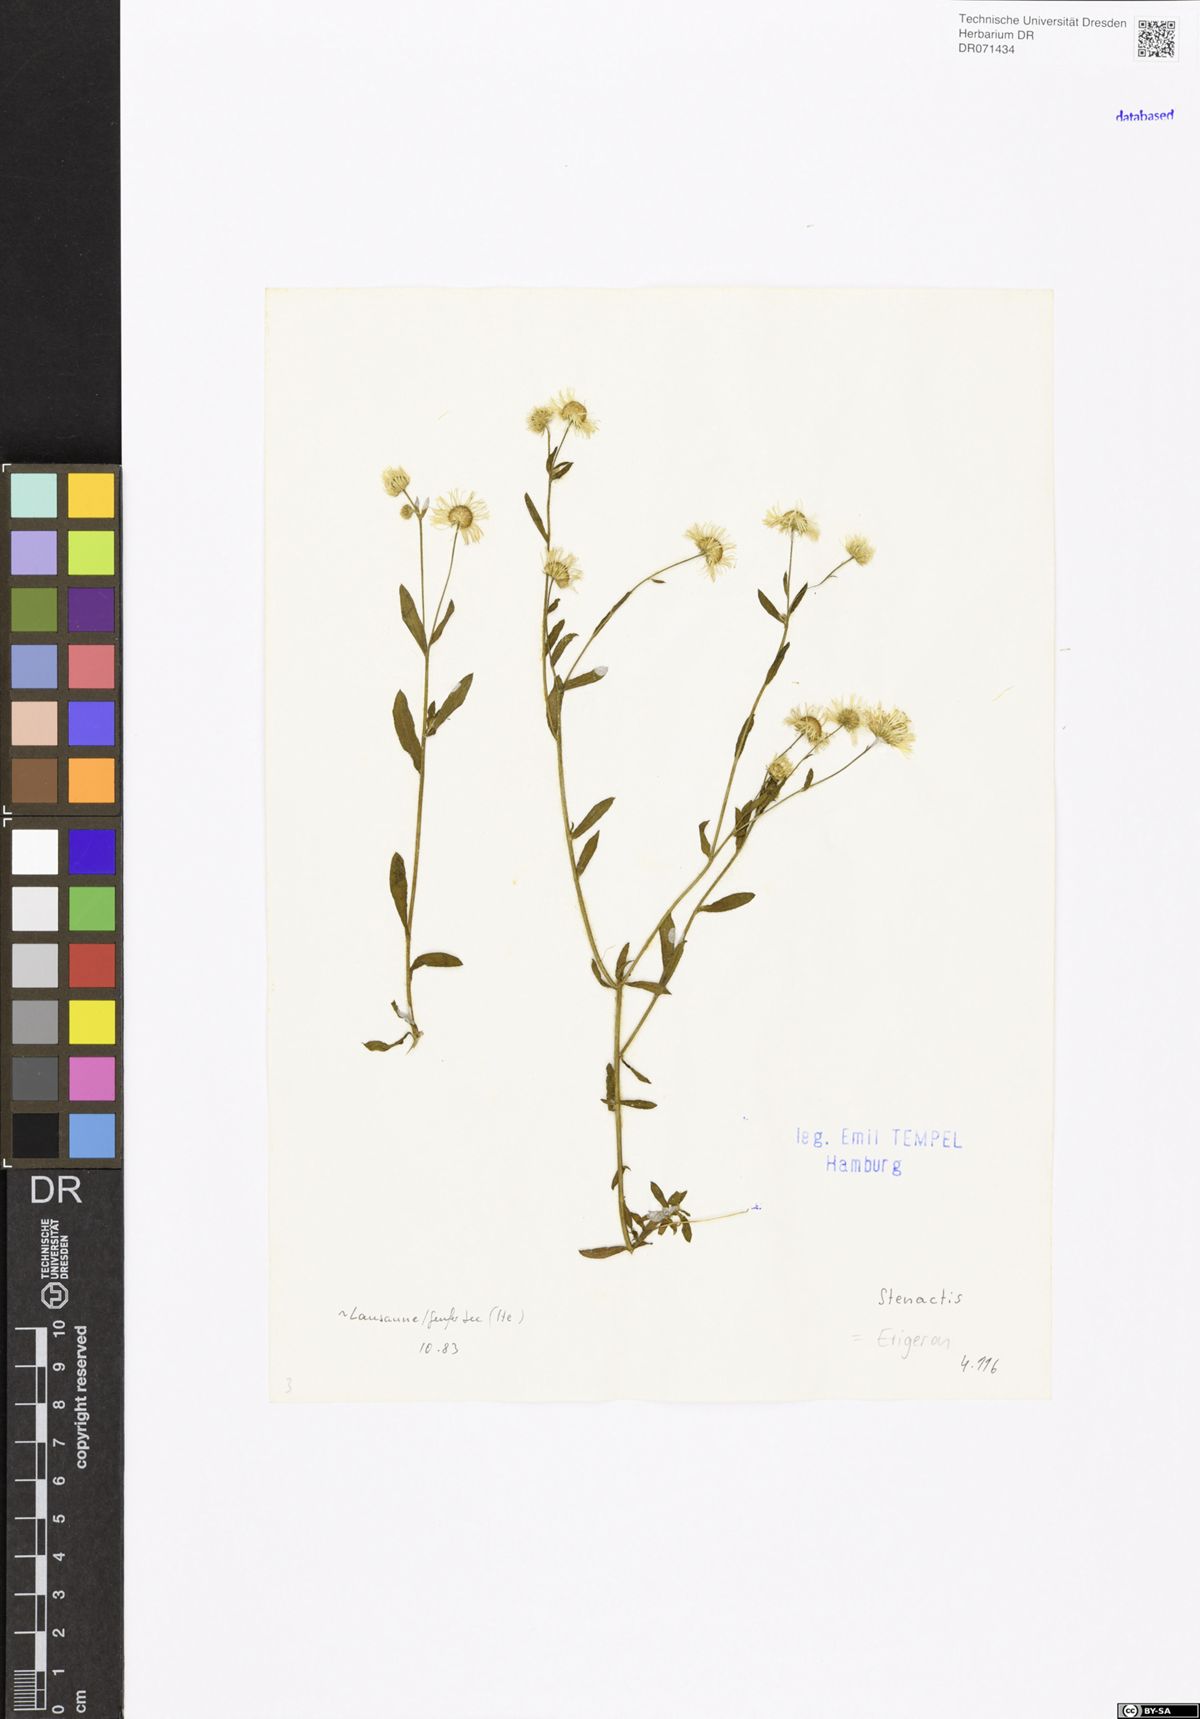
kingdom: Plantae
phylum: Tracheophyta
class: Magnoliopsida
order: Asterales
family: Asteraceae
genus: Erigeron
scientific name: Erigeron
